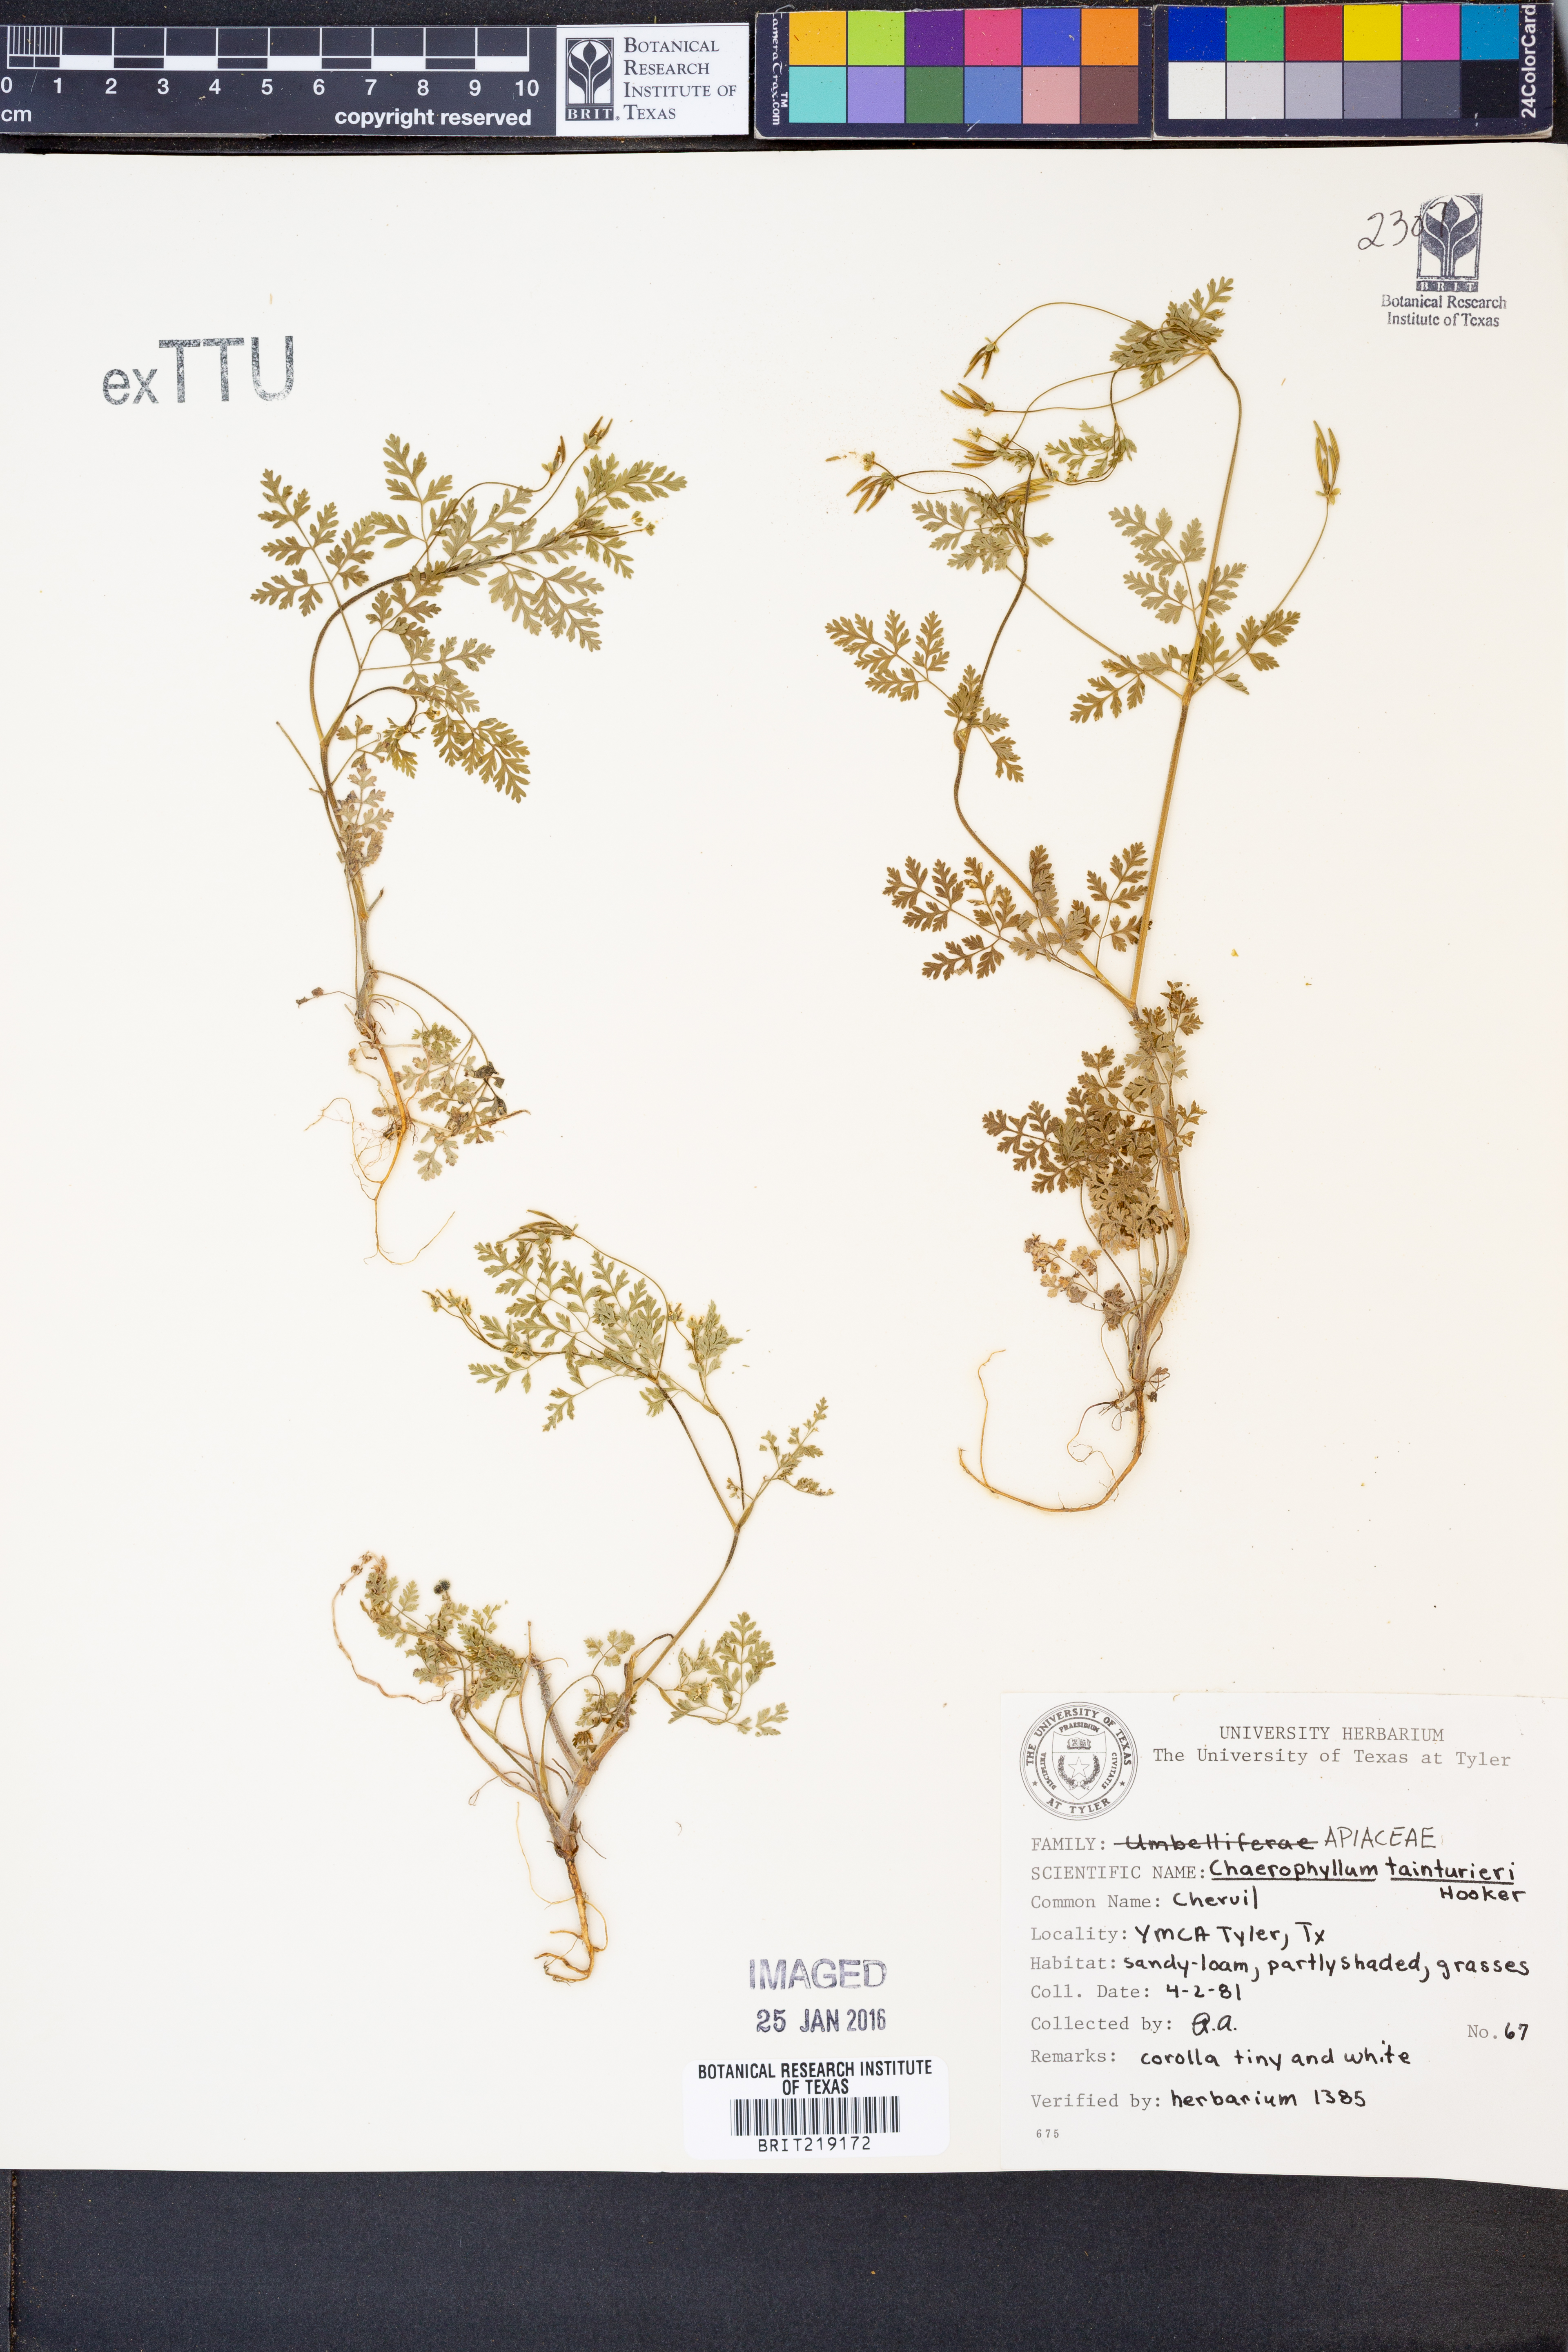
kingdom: Plantae
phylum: Tracheophyta
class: Magnoliopsida
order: Apiales
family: Apiaceae
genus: Chaerophyllum
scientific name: Chaerophyllum tainturieri
